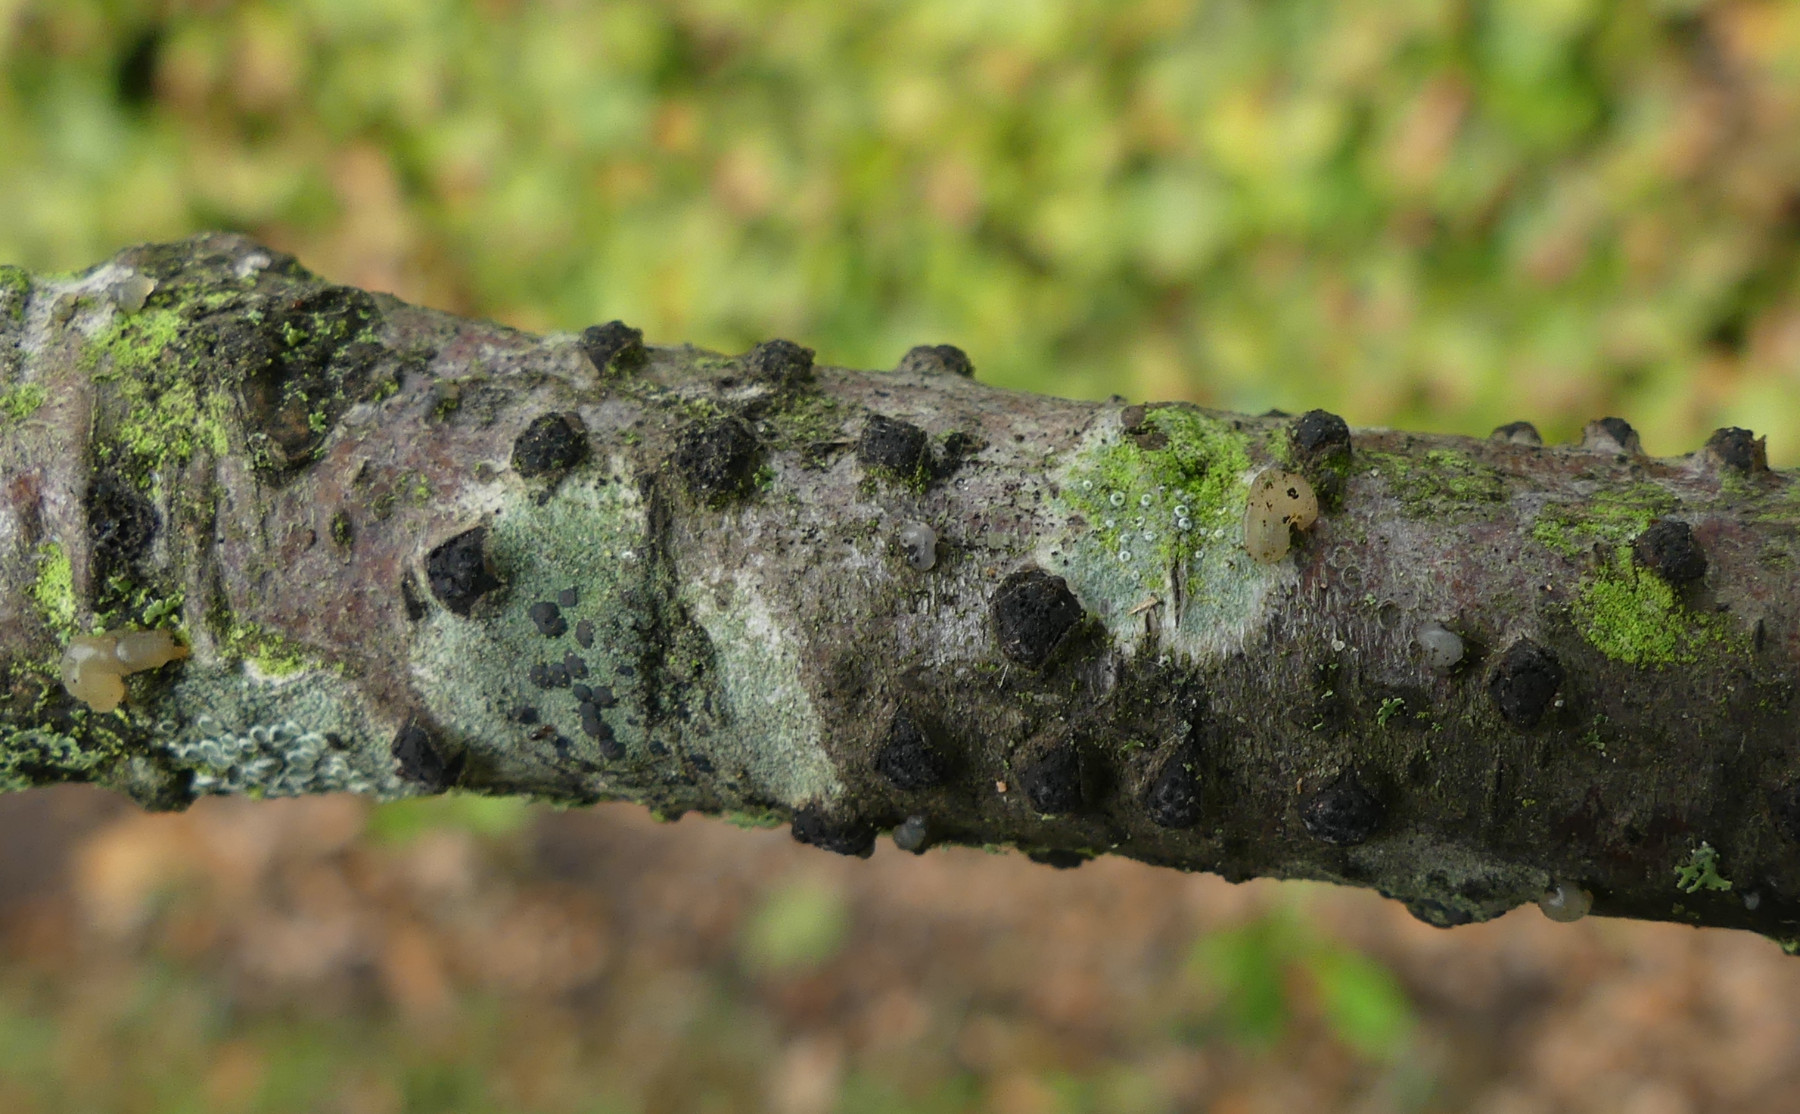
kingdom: Fungi
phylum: Ascomycota
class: Sordariomycetes
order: Xylariales
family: Diatrypaceae
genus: Diatrypella
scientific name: Diatrypella quercina
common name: ege-kulskorpe
